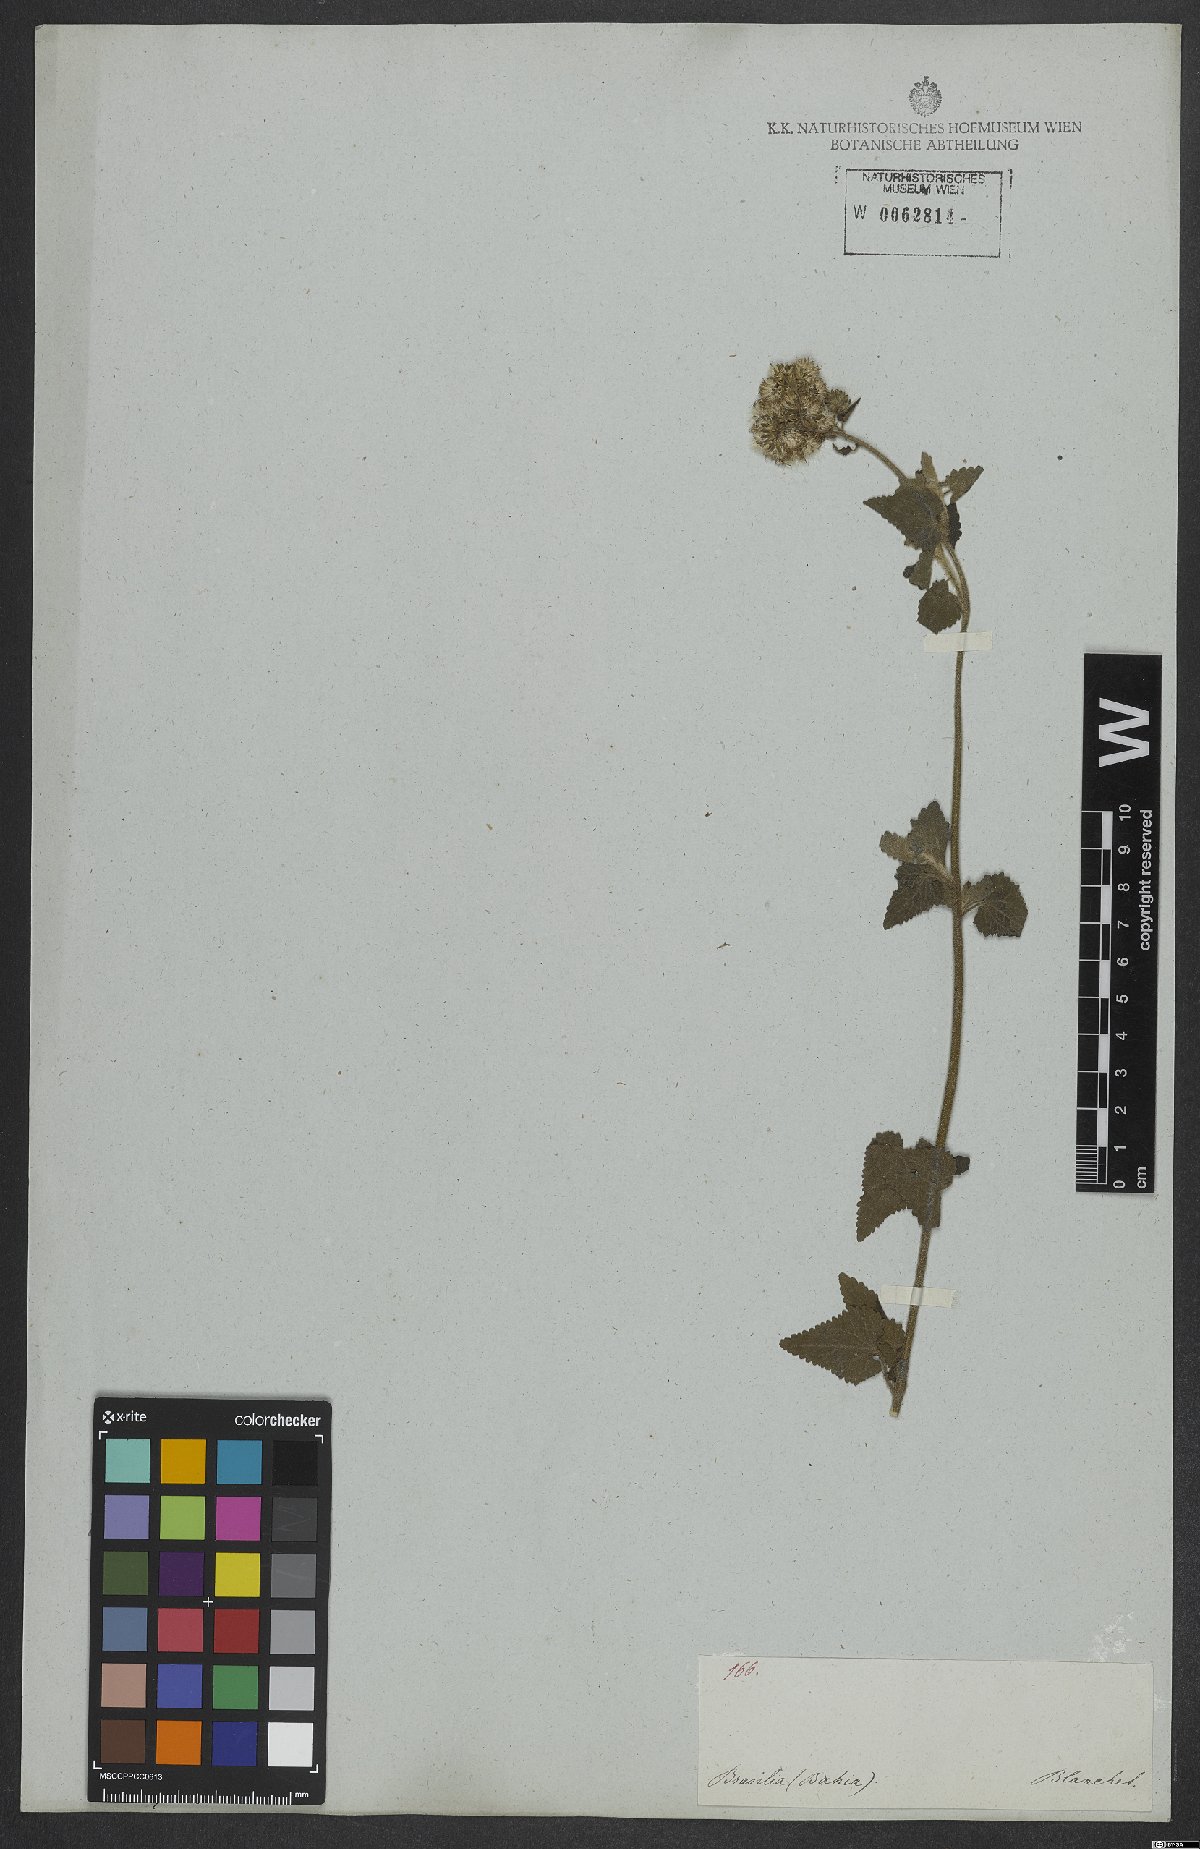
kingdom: Plantae
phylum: Tracheophyta
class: Magnoliopsida
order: Asterales
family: Asteraceae
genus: Barrosoa
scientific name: Barrosoa betoniciformis
